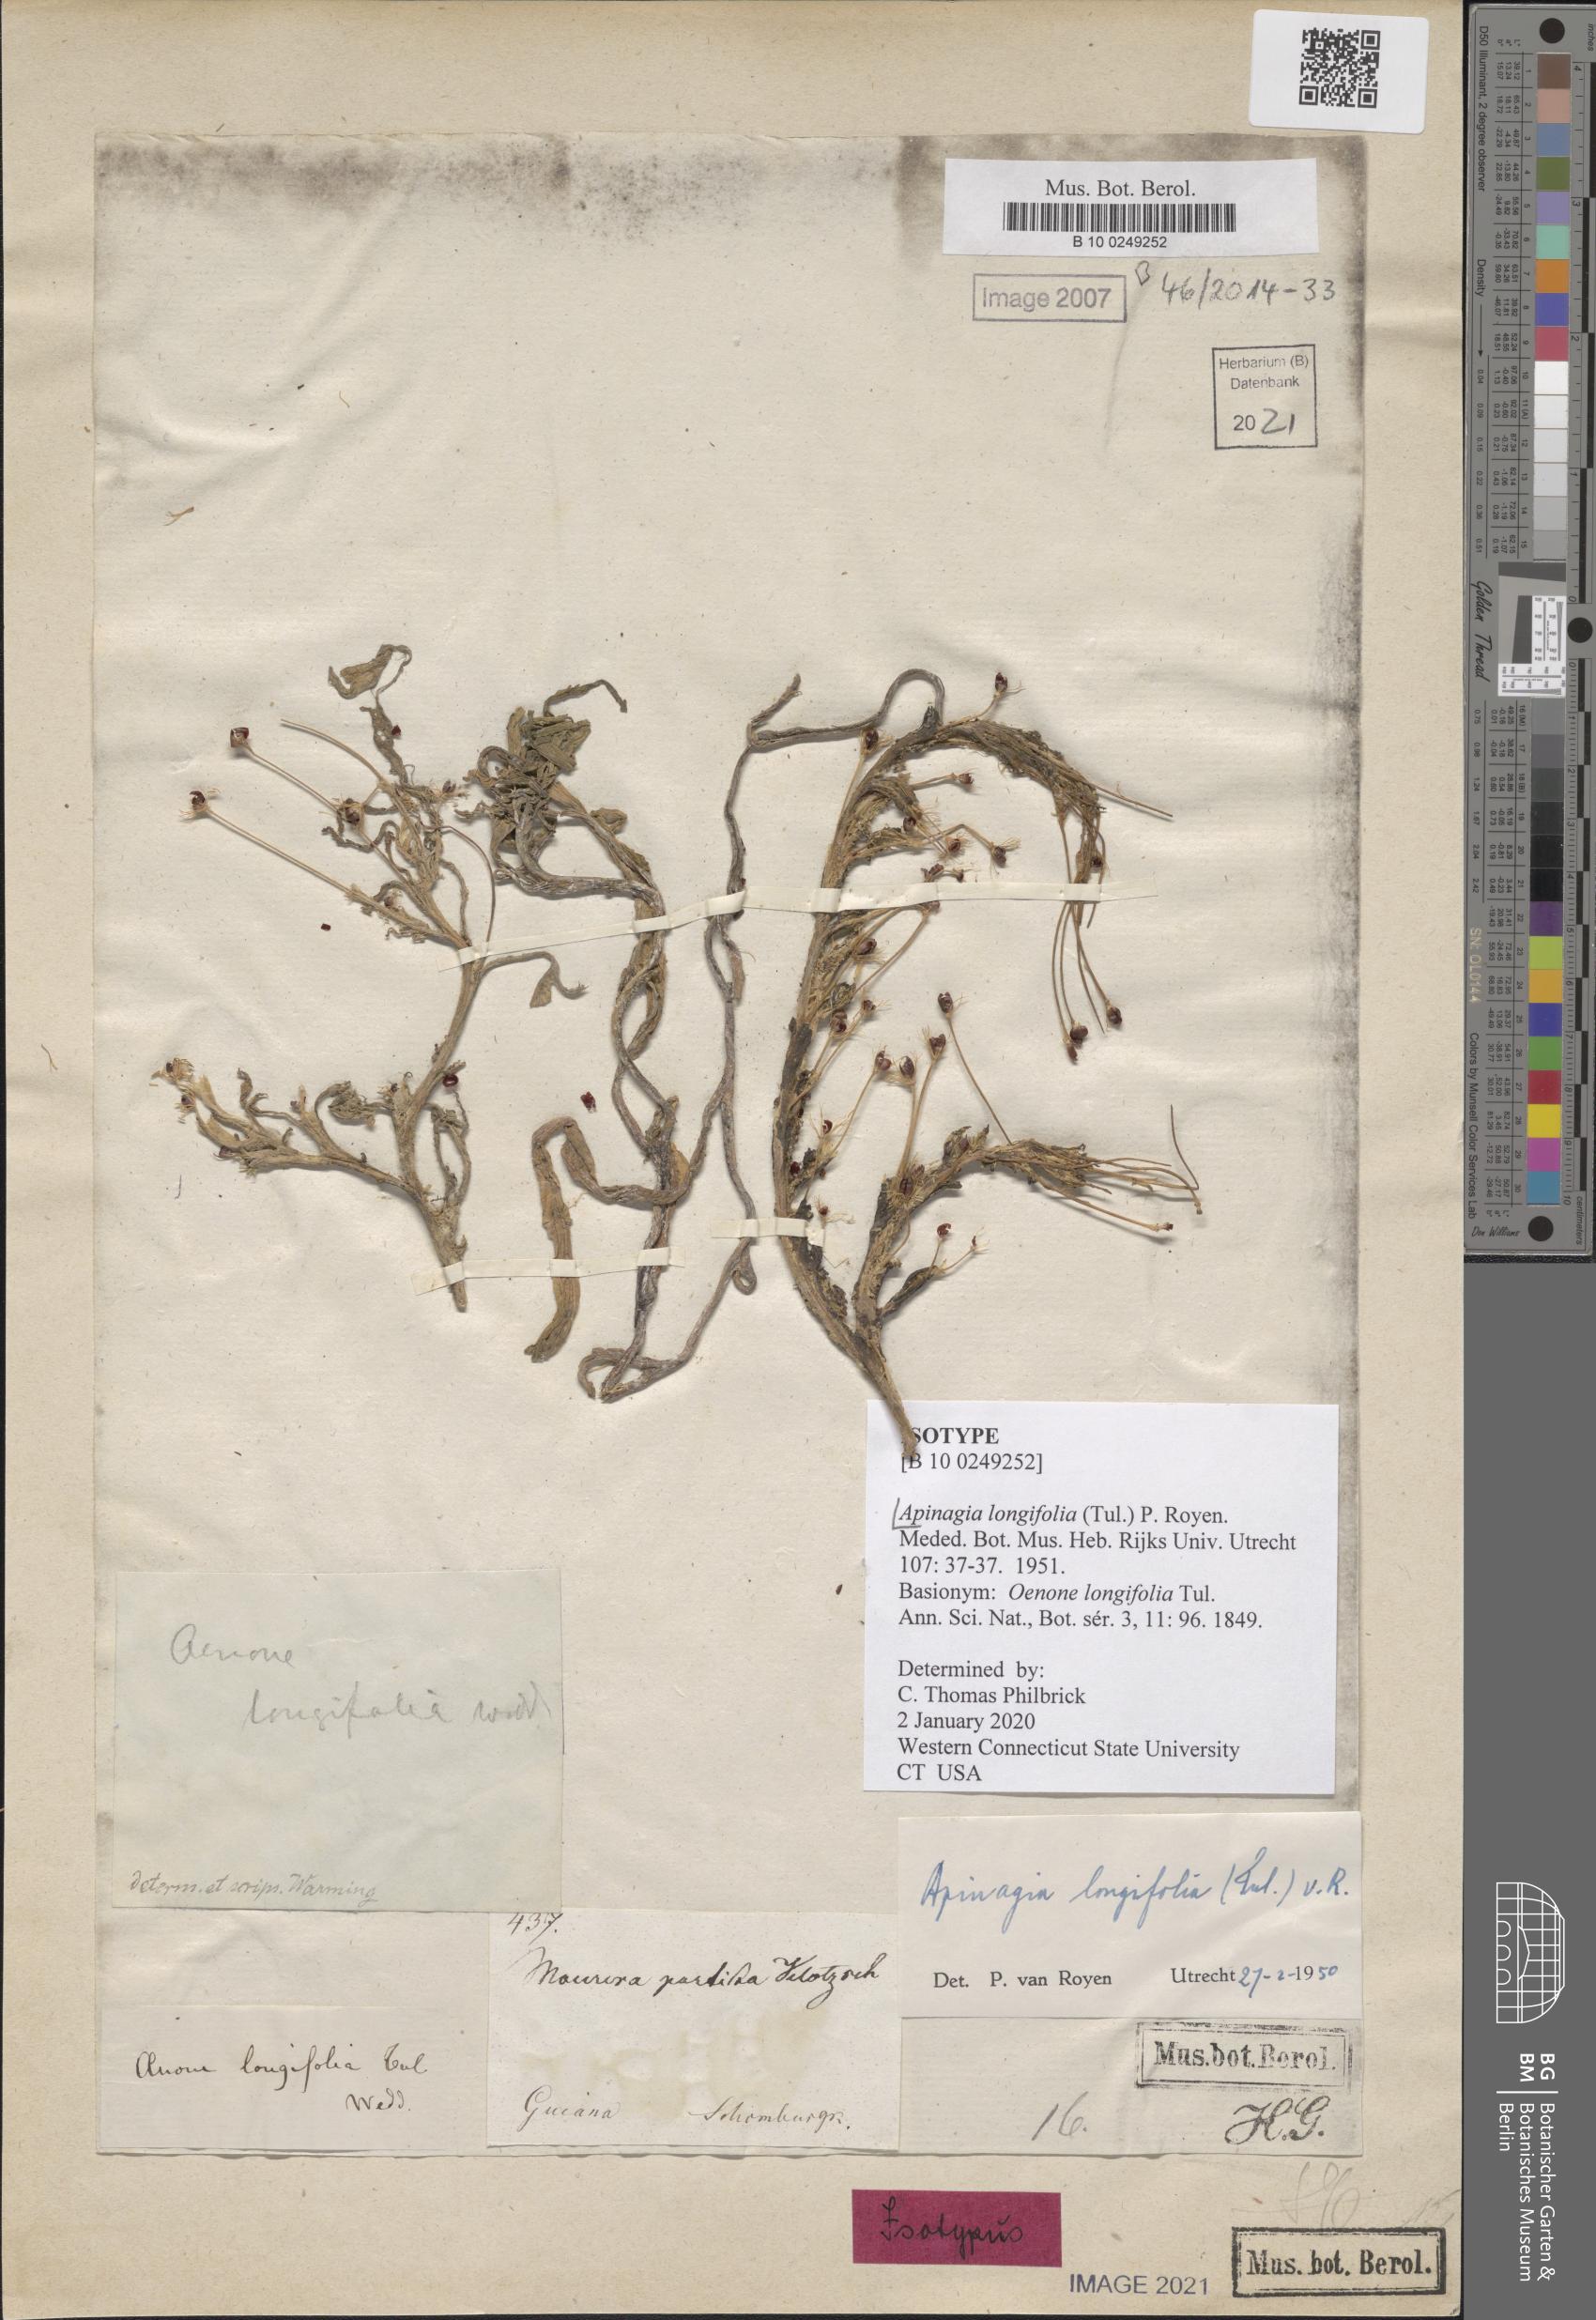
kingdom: Plantae
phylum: Tracheophyta
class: Magnoliopsida
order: Malpighiales
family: Podostemaceae
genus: Apinagia
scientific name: Apinagia longifolia
